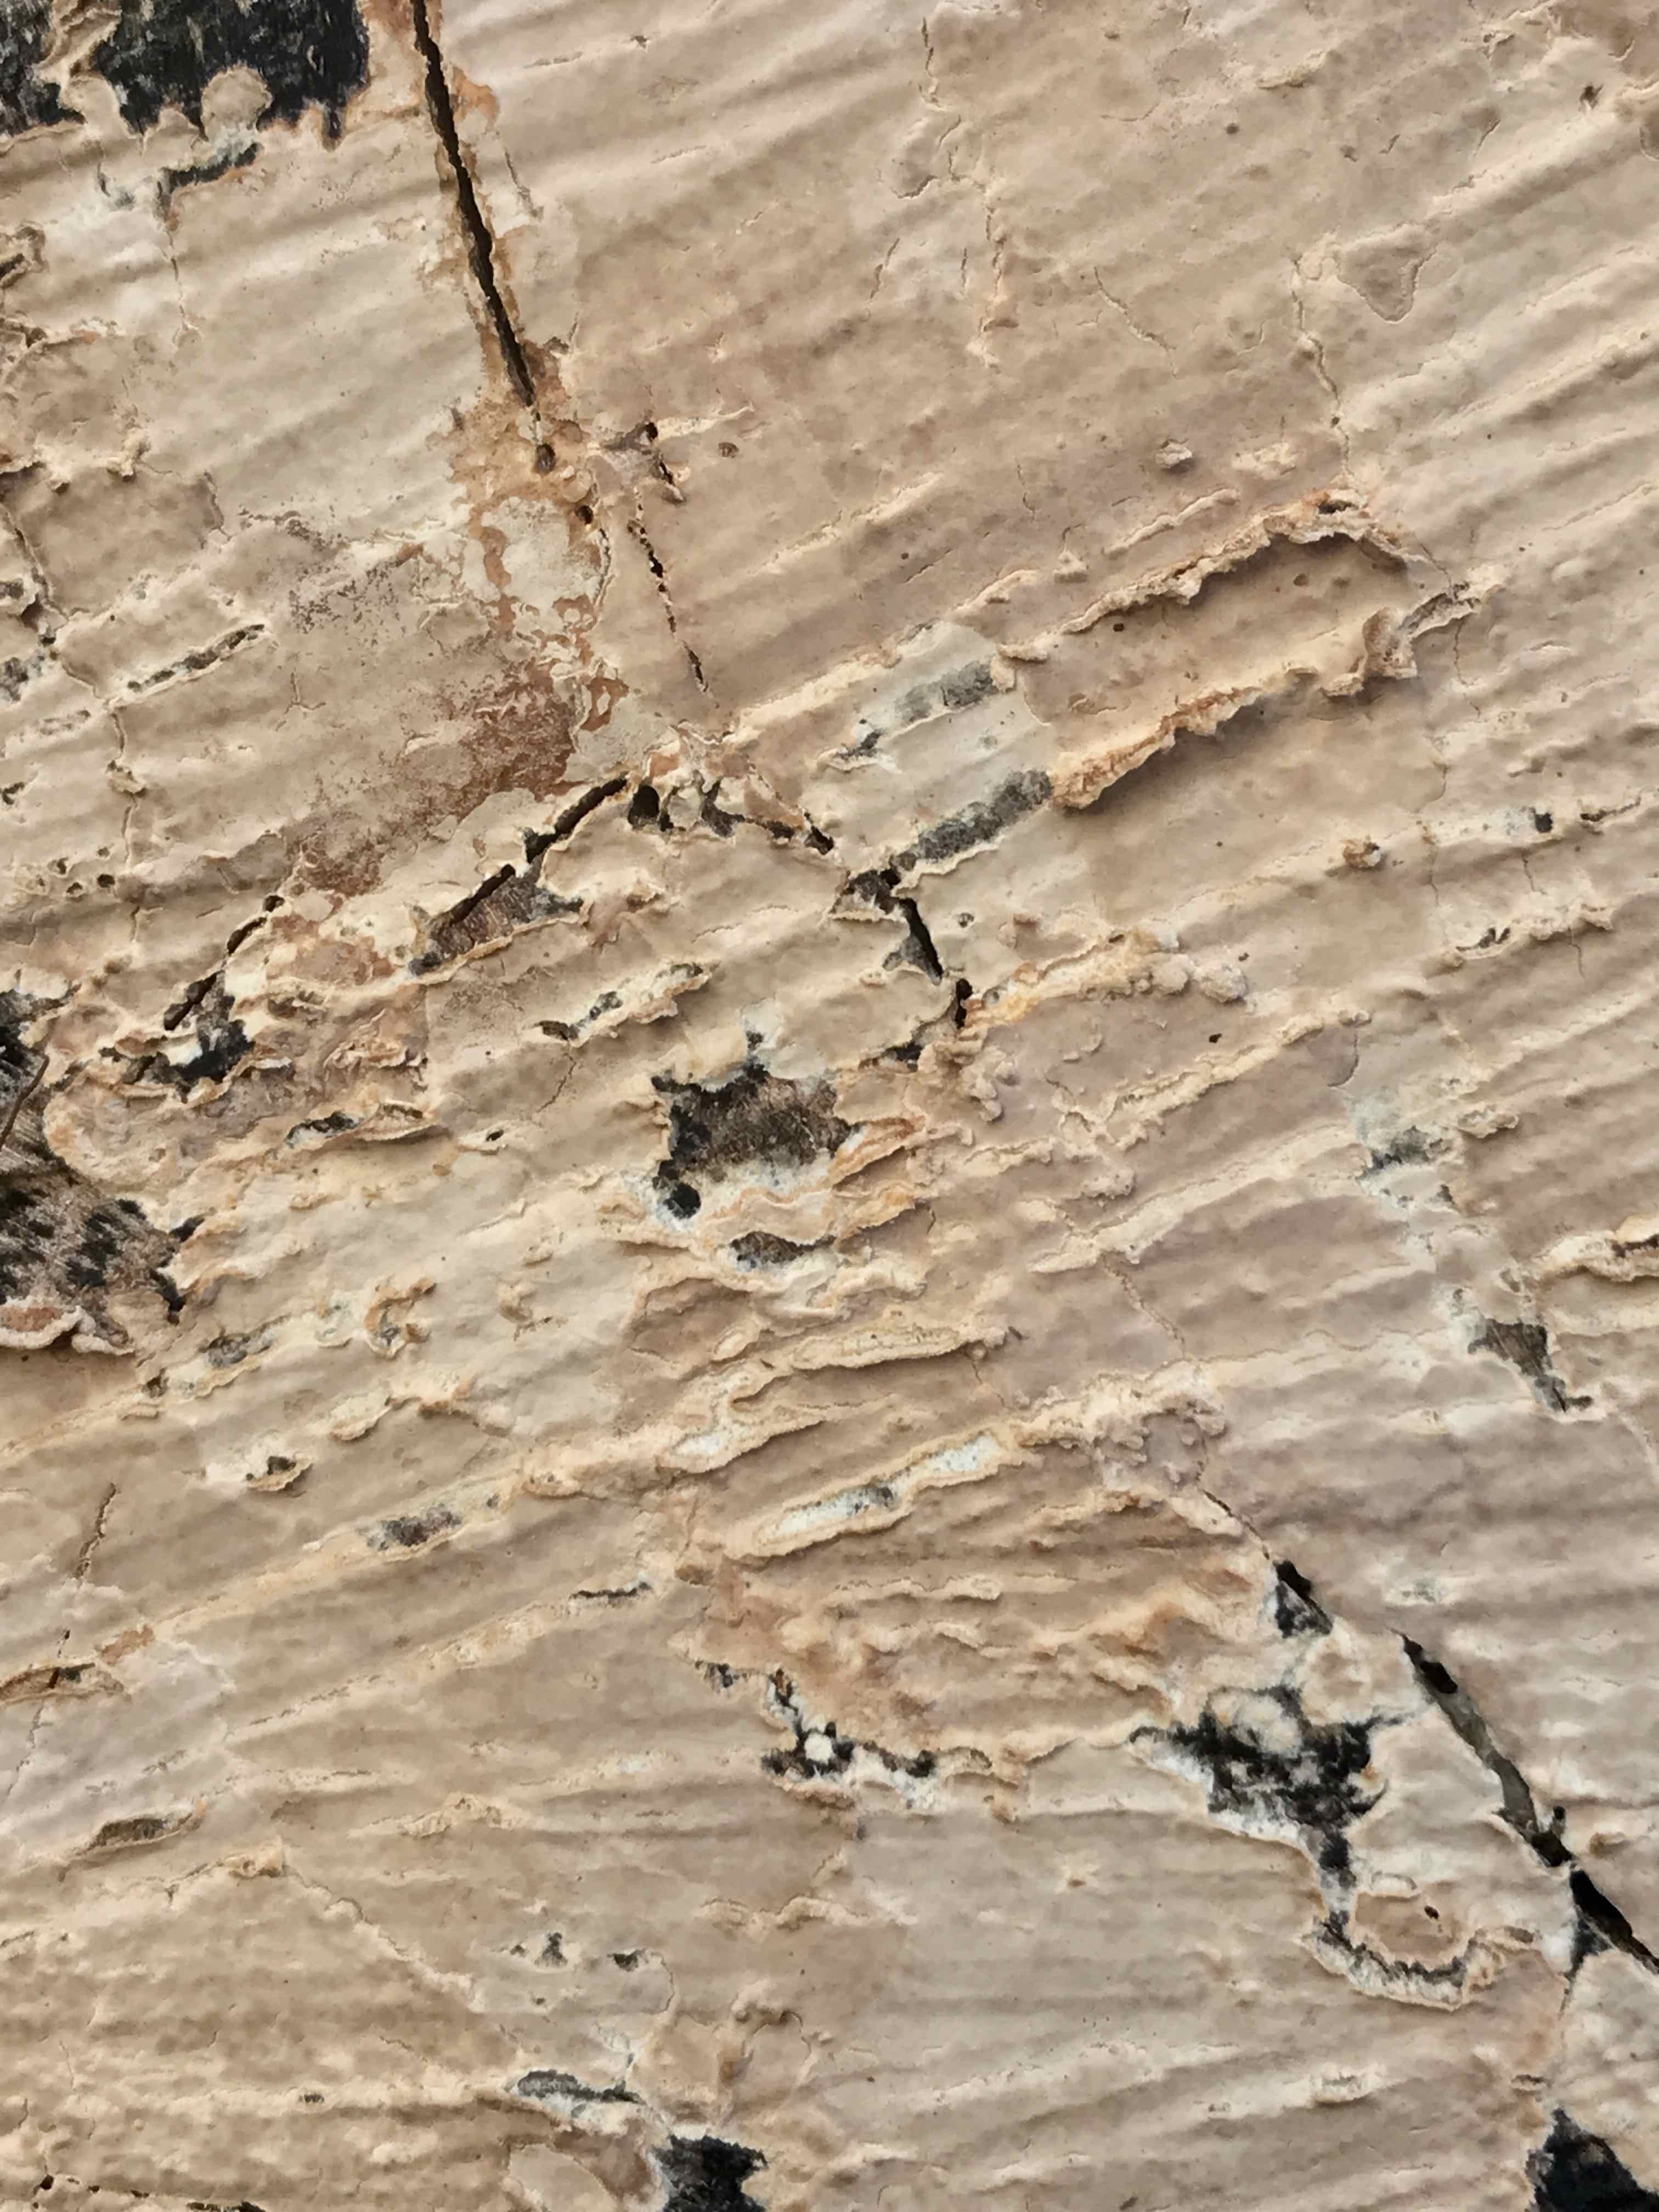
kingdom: Fungi
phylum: Basidiomycota
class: Agaricomycetes
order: Agaricales
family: Physalacriaceae
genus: Cylindrobasidium
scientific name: Cylindrobasidium evolvens
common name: sprækkehinde
